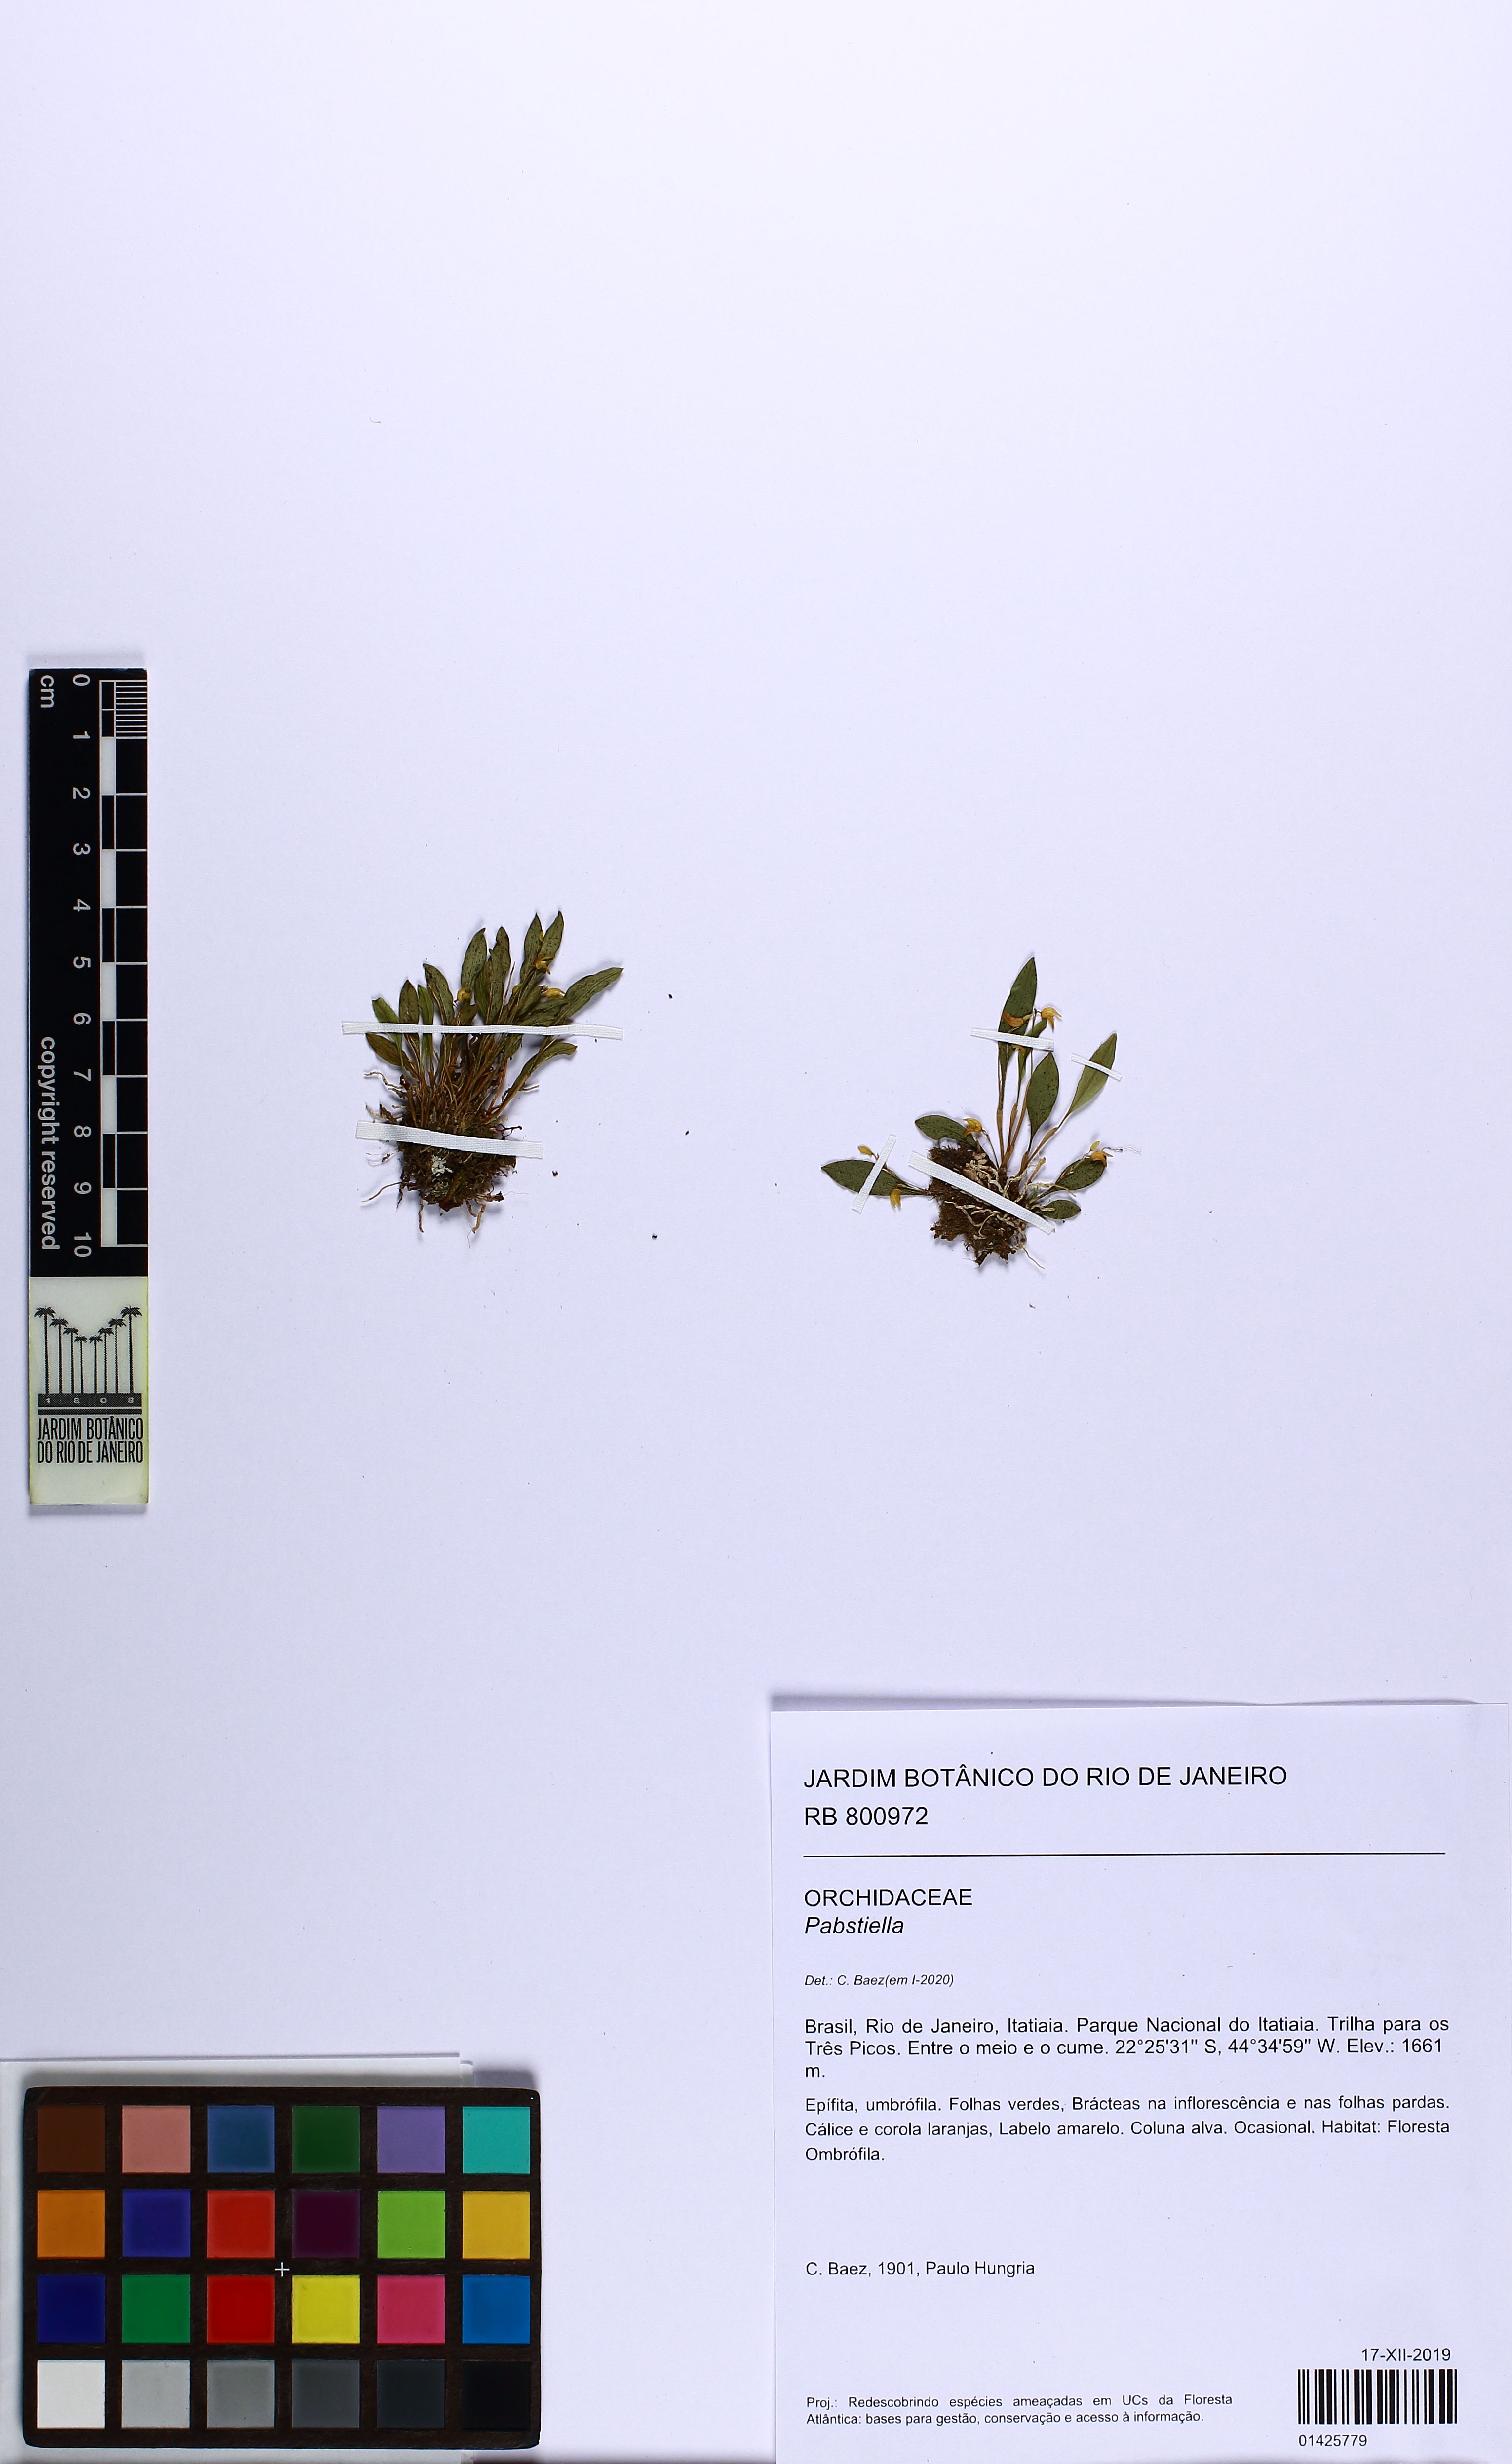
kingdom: Plantae
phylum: Tracheophyta
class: Liliopsida
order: Asparagales
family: Orchidaceae
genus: Pabstiella
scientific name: Pabstiella trifida
